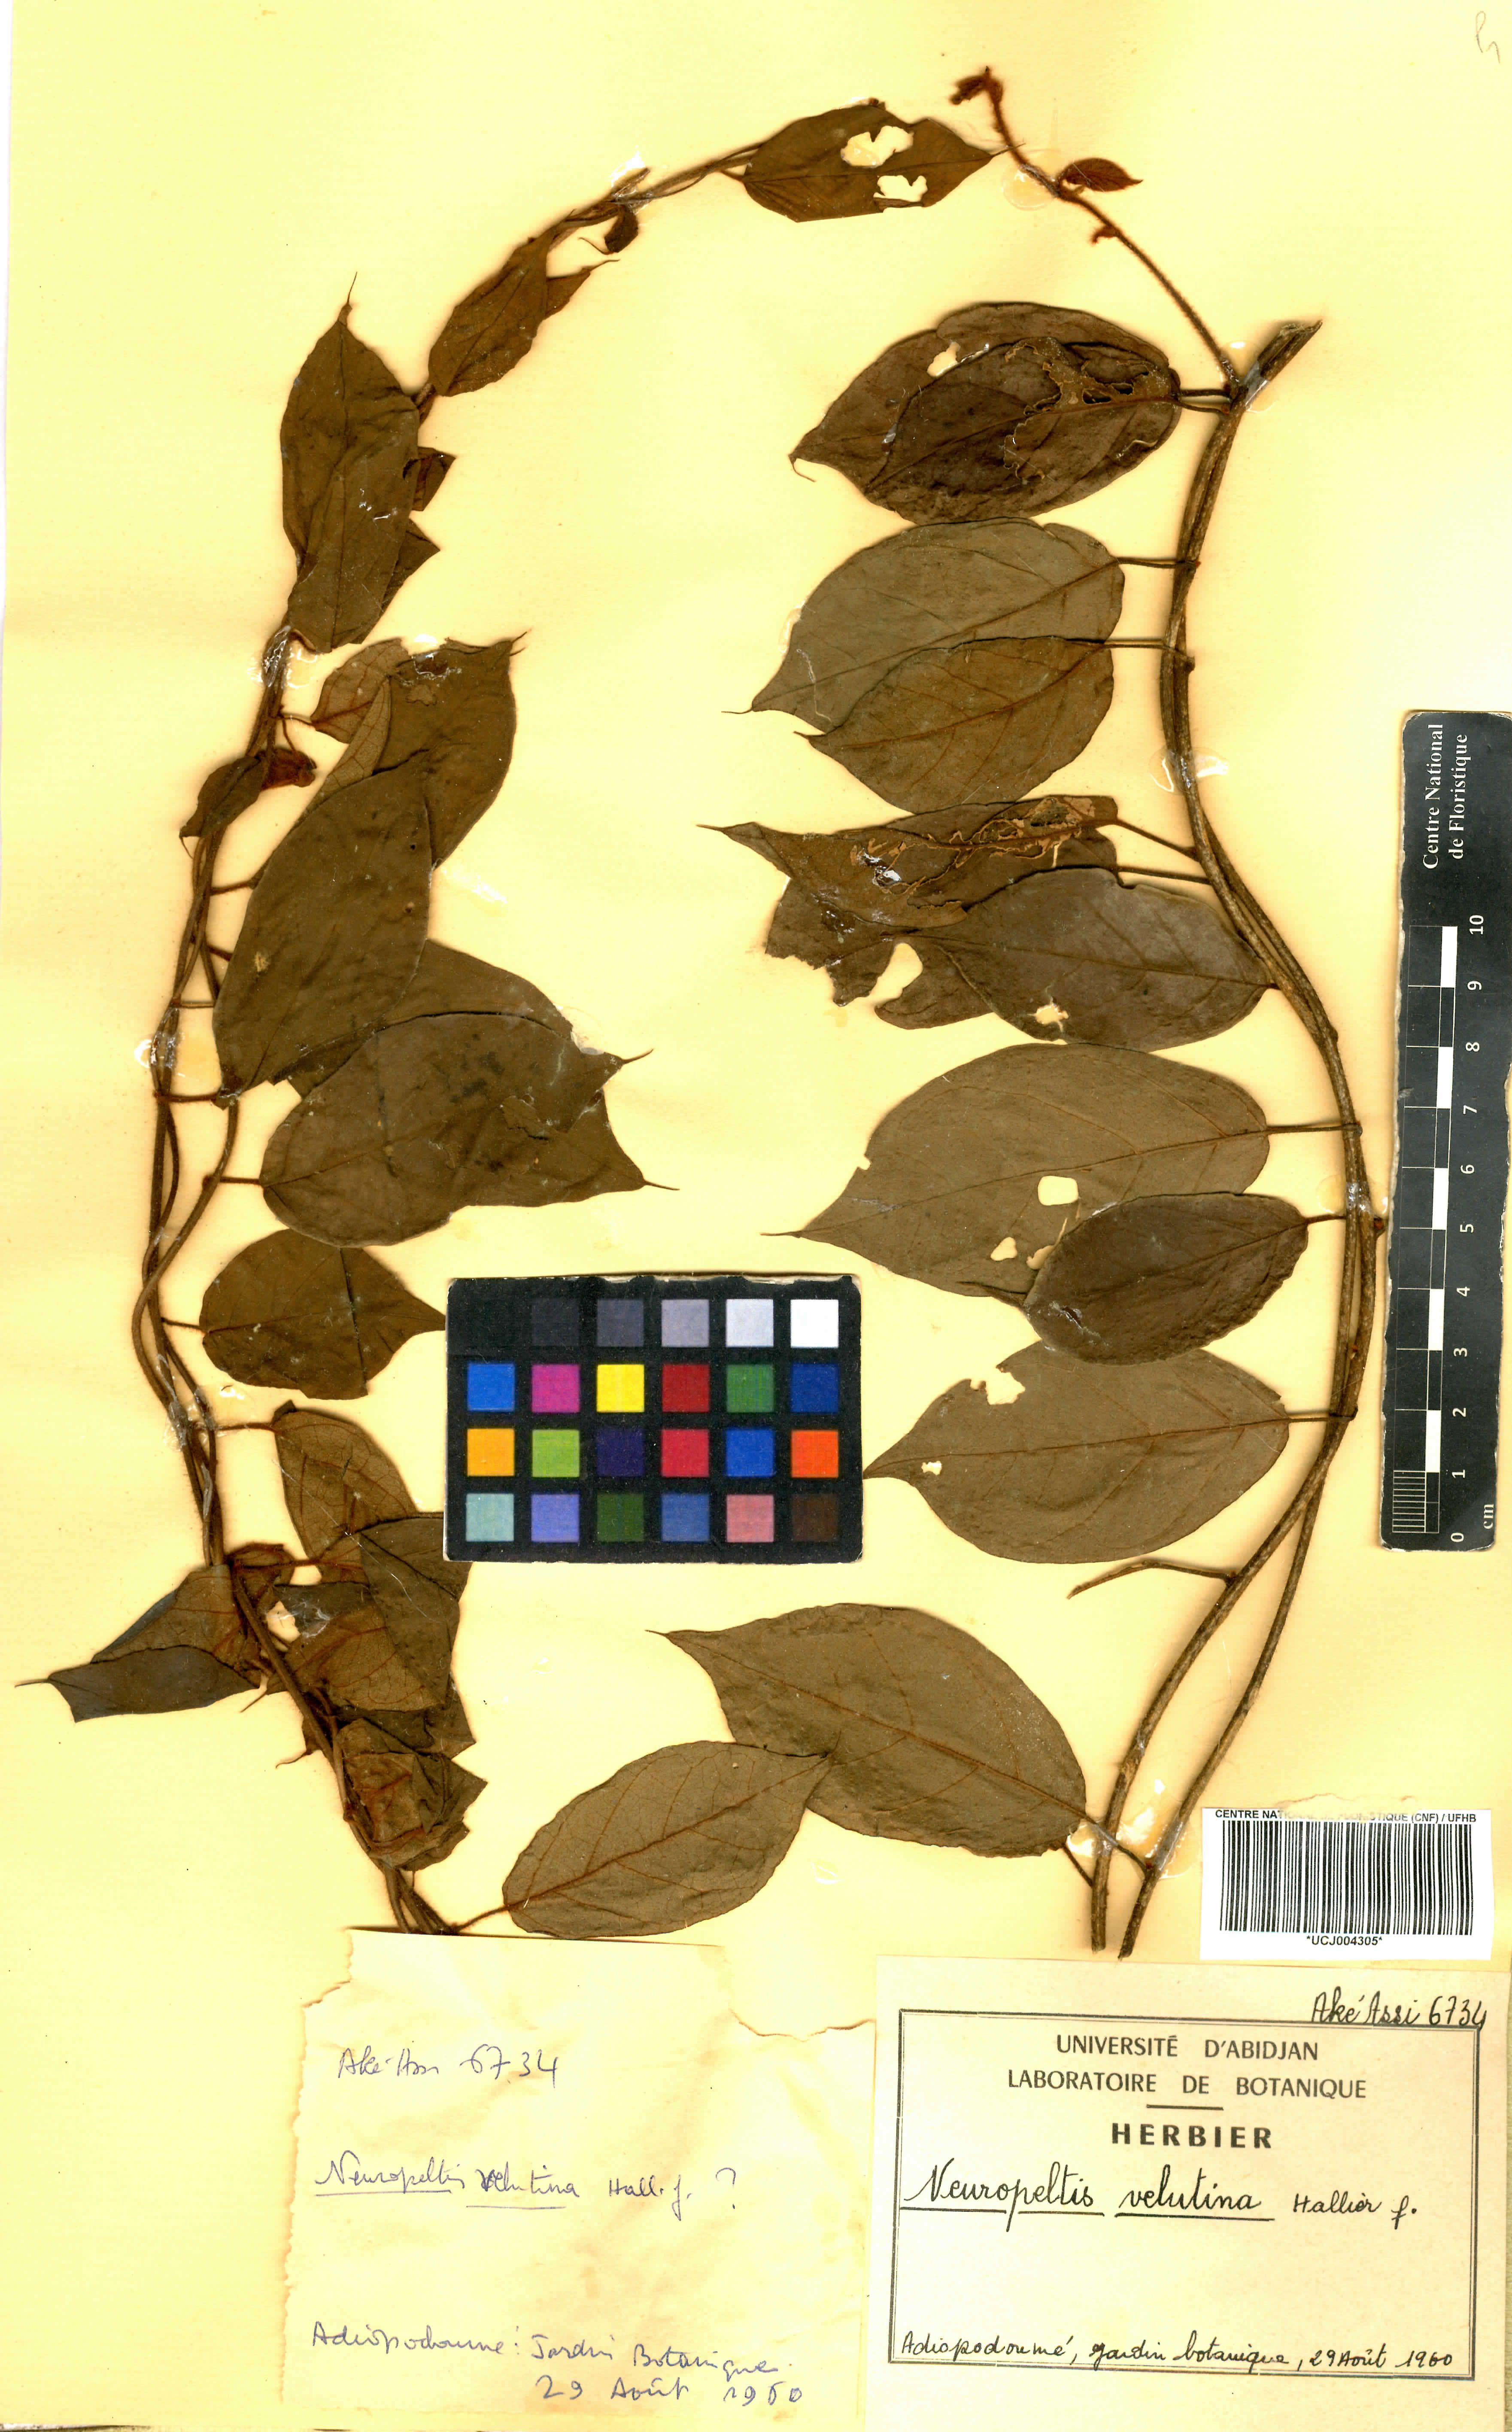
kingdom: Plantae
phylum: Tracheophyta
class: Magnoliopsida
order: Solanales
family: Convolvulaceae
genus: Neuropeltis
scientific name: Neuropeltis velutina
